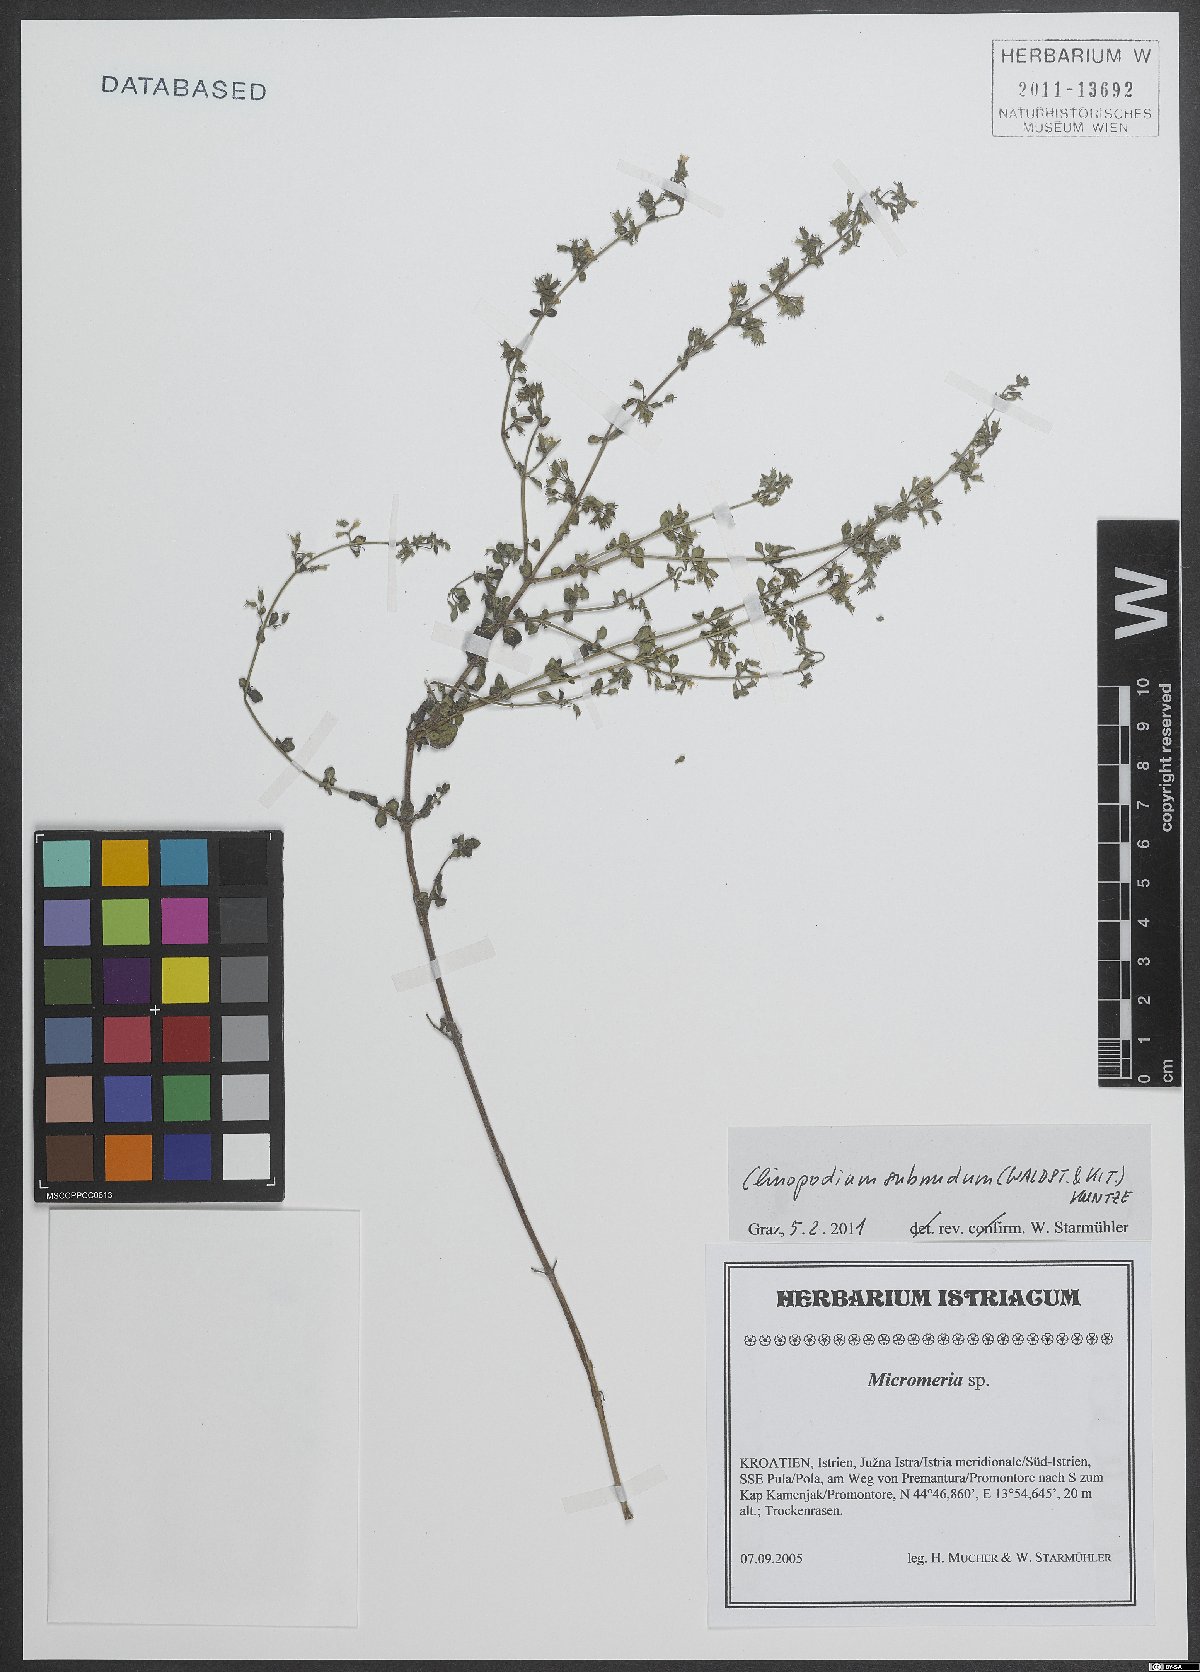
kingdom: Plantae
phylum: Tracheophyta
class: Magnoliopsida
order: Lamiales
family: Lamiaceae
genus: Clinopodium
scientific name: Clinopodium nepeta
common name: Lesser calamint
